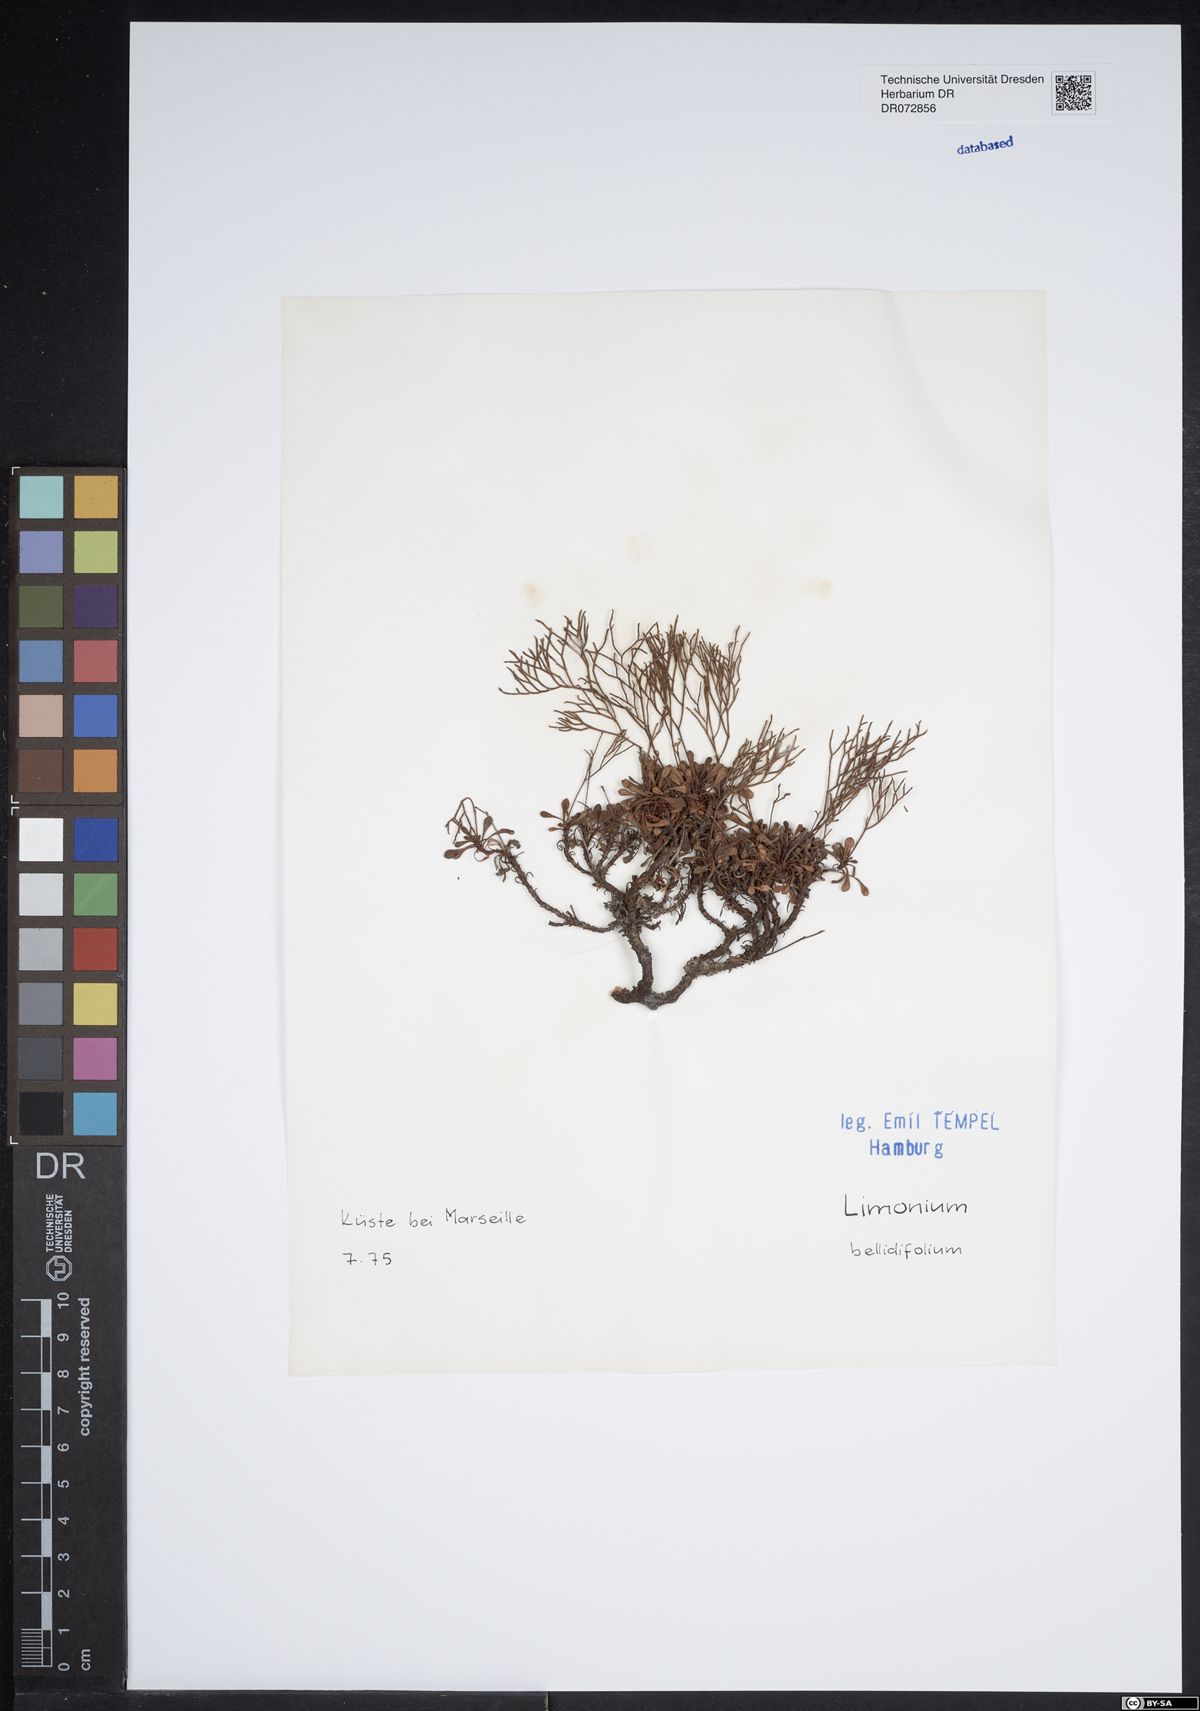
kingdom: Plantae
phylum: Tracheophyta
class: Magnoliopsida
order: Caryophyllales
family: Plumbaginaceae
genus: Limonium
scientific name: Limonium bellidifolium
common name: Matted sea-lavender
